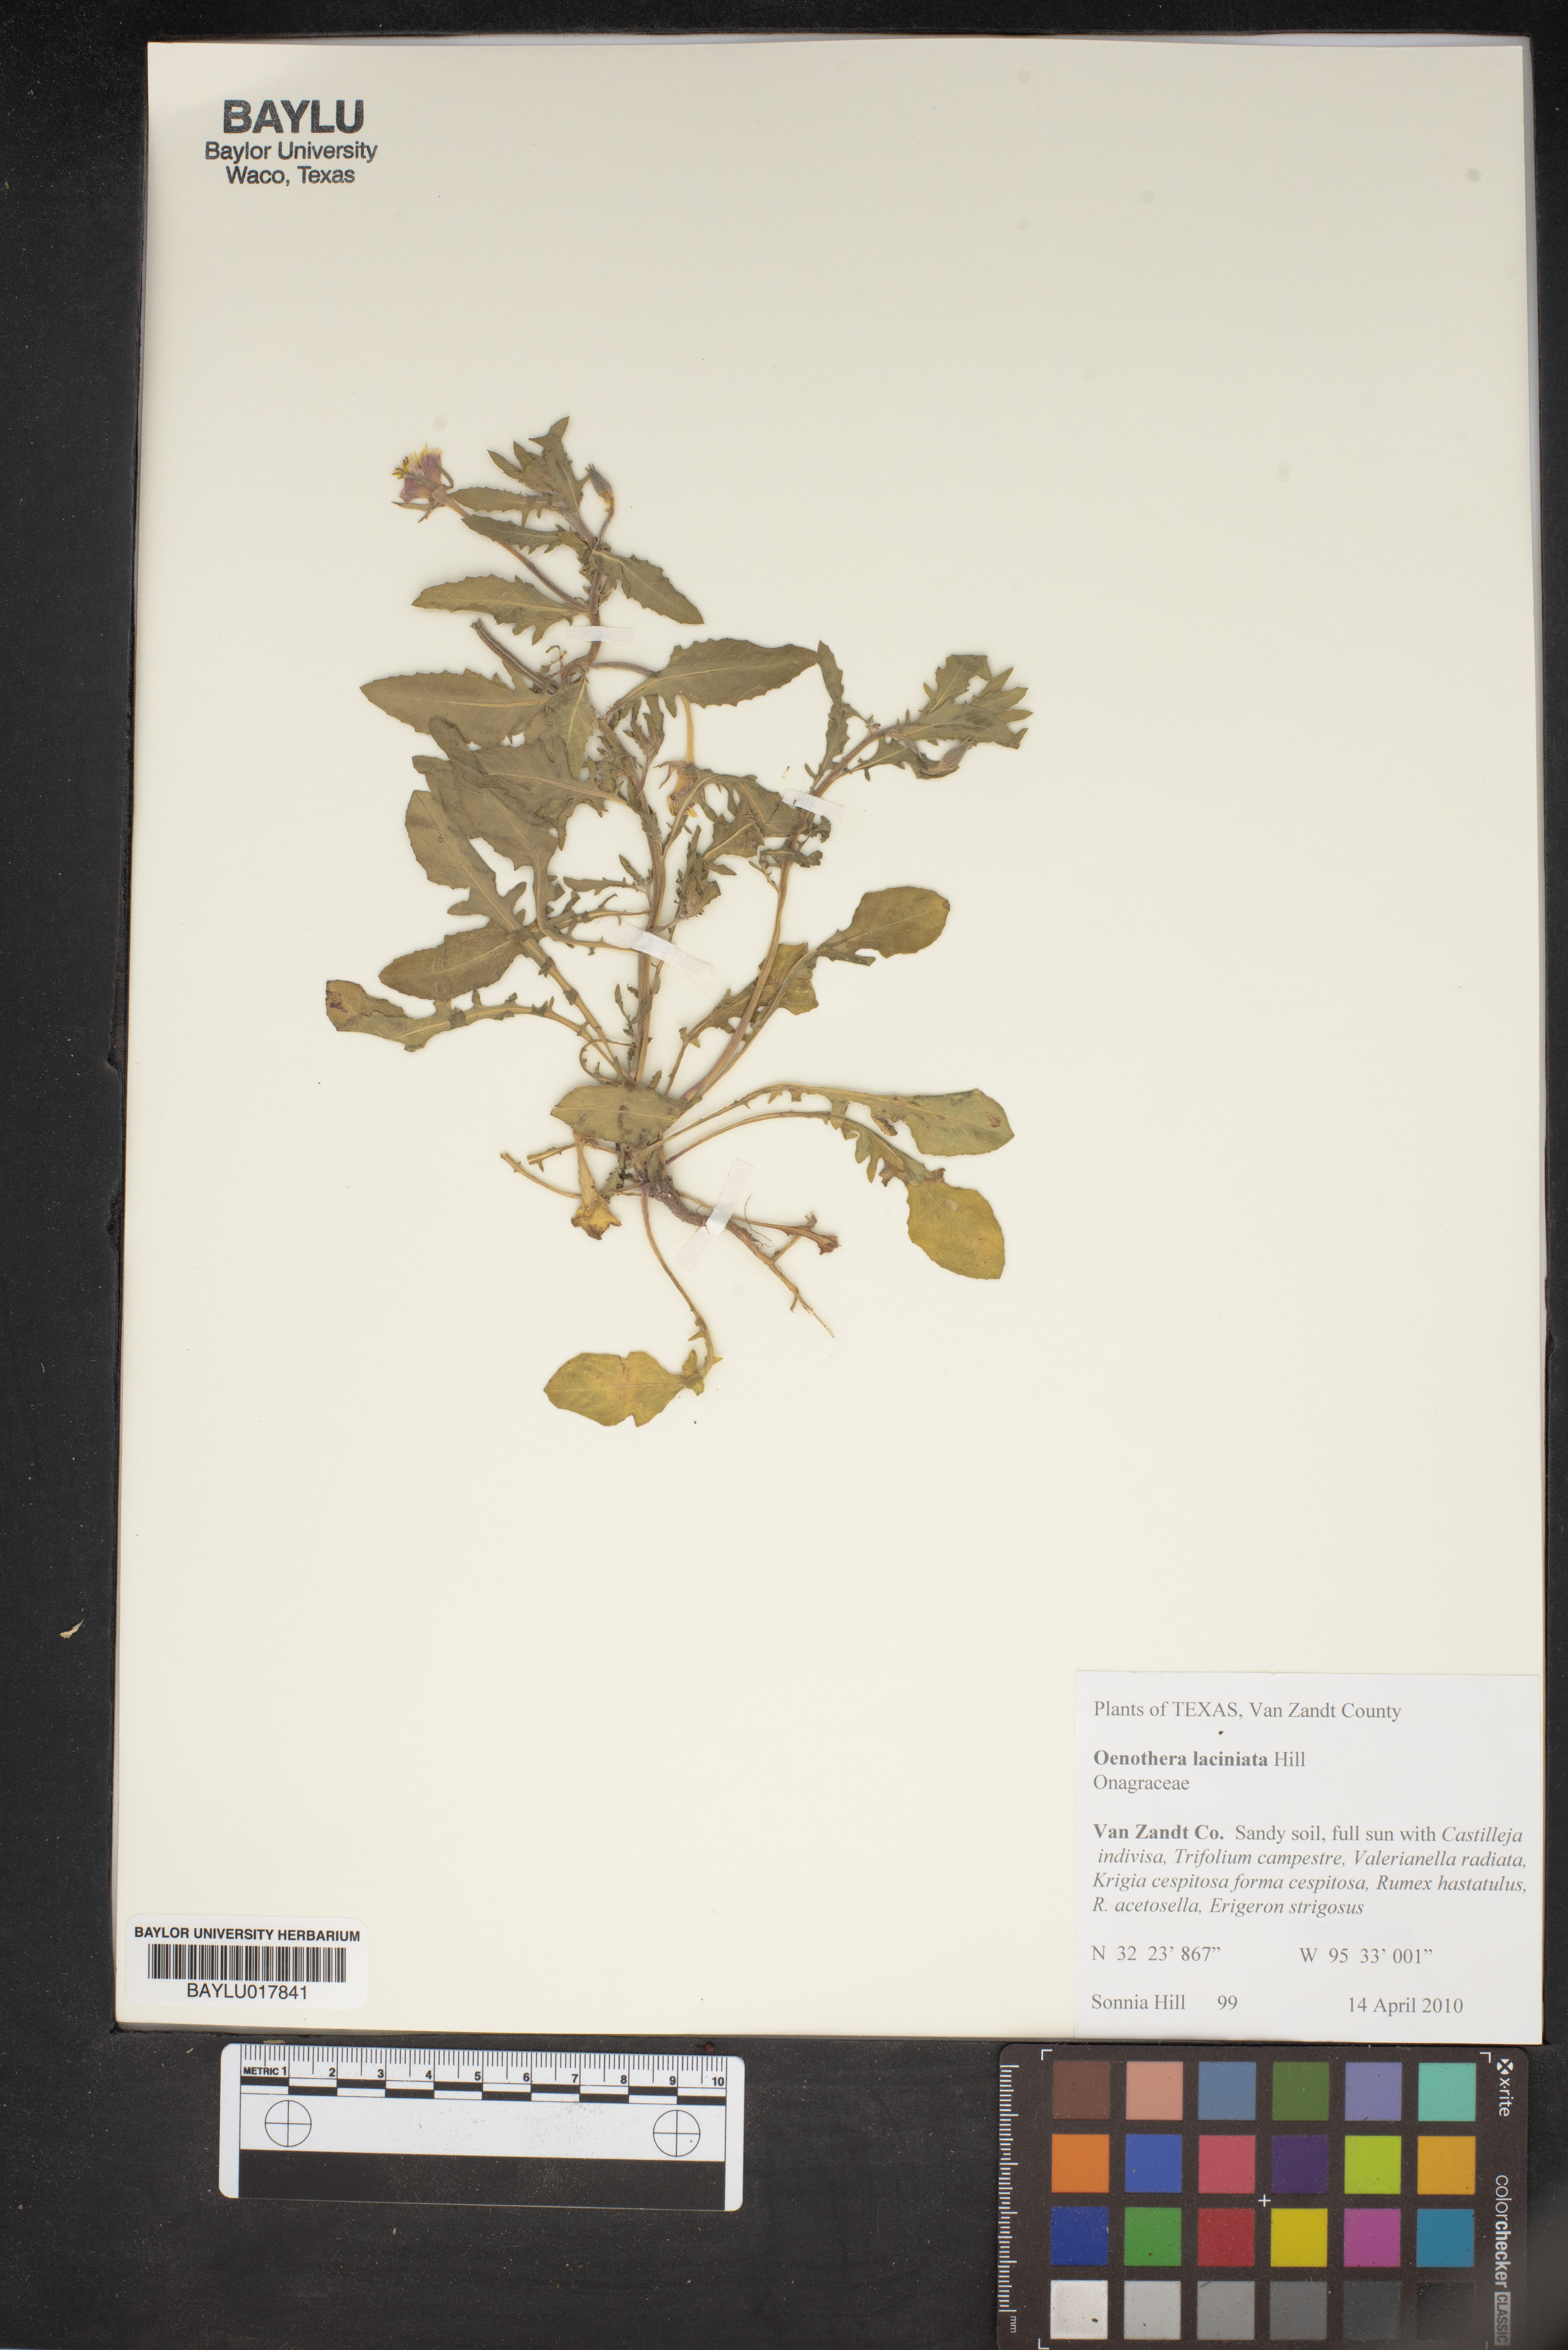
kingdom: Plantae
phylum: Tracheophyta
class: Magnoliopsida
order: Myrtales
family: Onagraceae
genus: Oenothera
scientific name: Oenothera laciniata
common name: Cut-leaved evening-primrose
